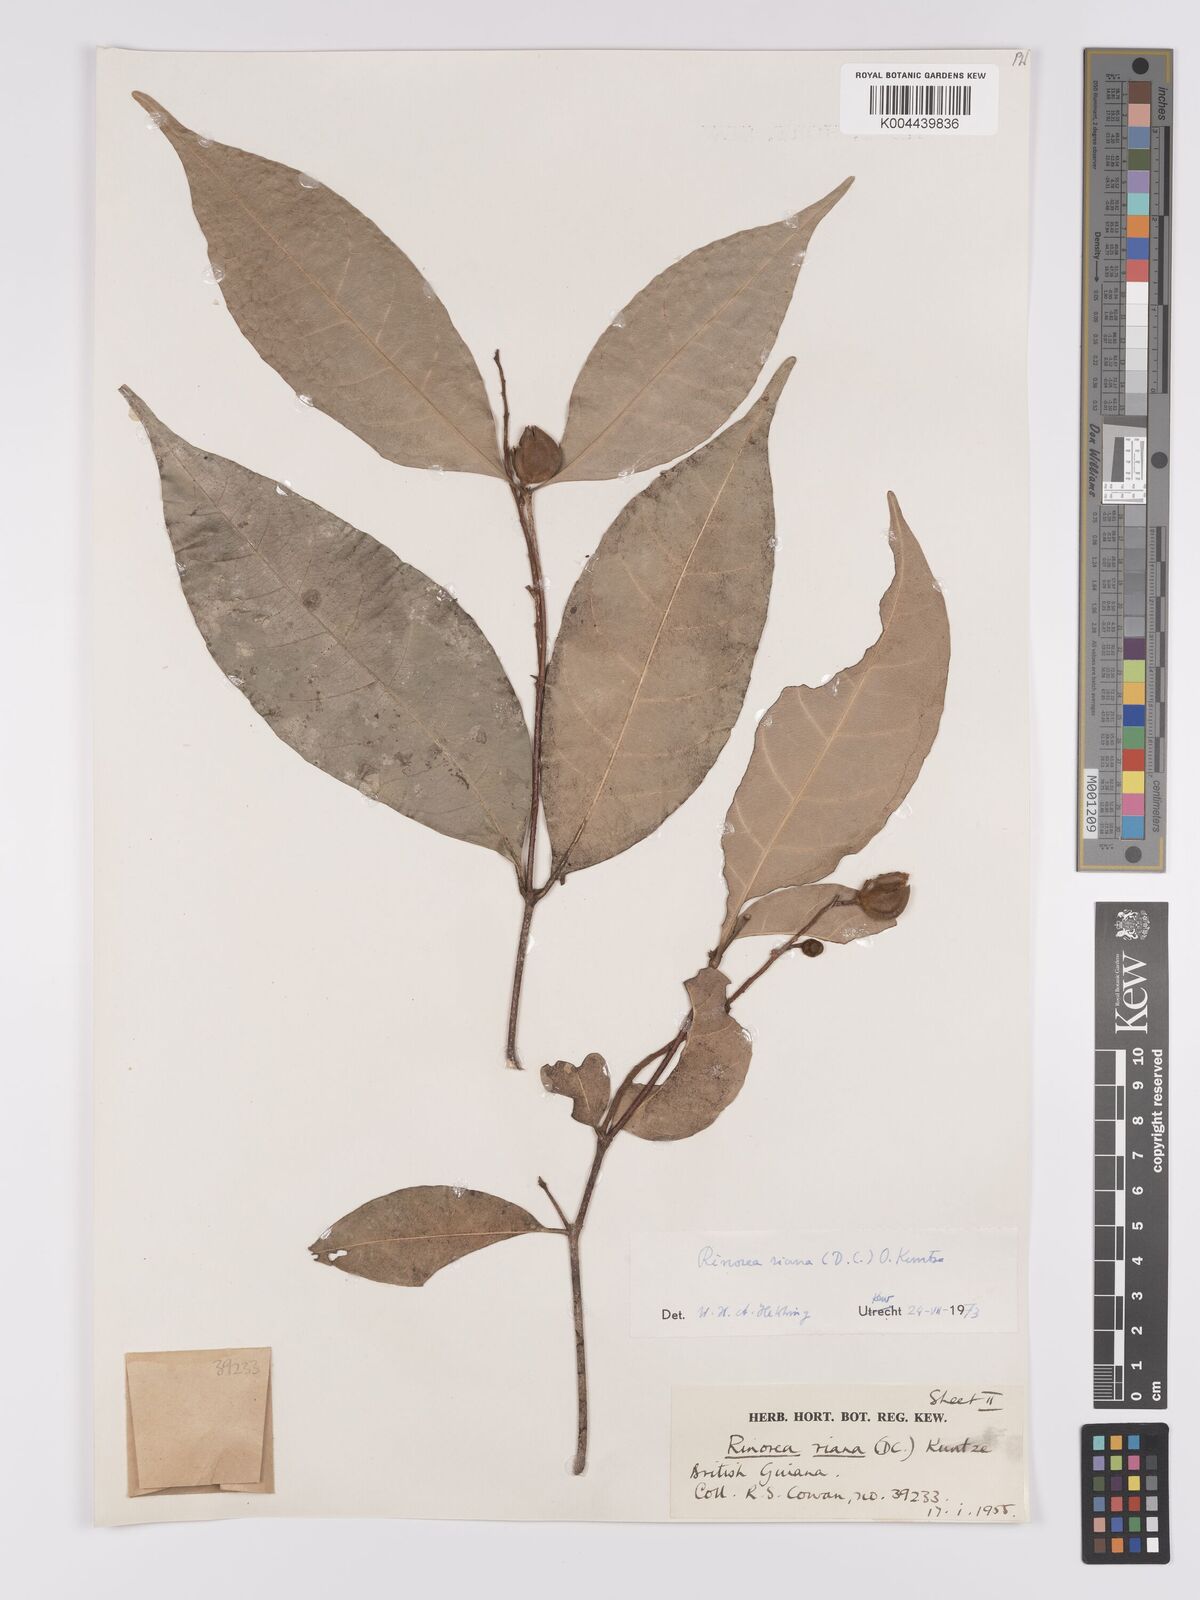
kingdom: Plantae
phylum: Tracheophyta
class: Magnoliopsida
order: Malpighiales
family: Violaceae
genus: Rinorea
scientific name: Rinorea riana
